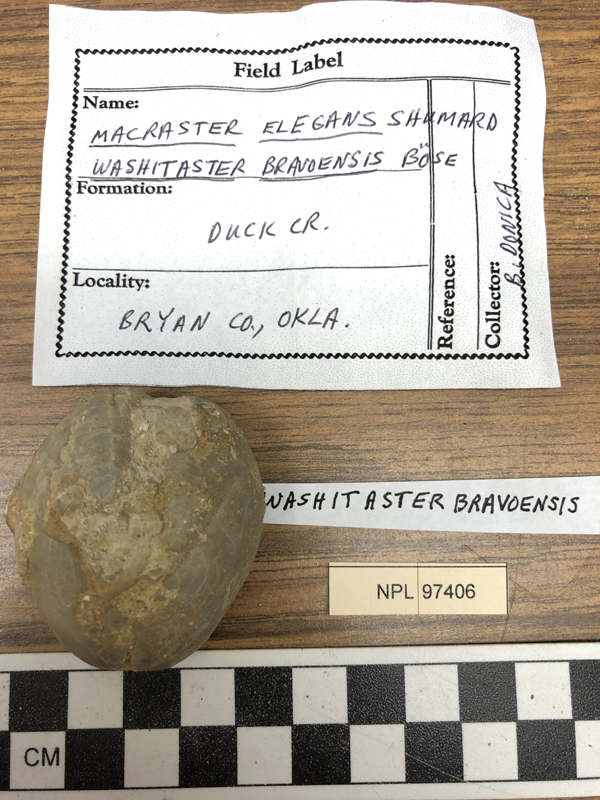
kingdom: Animalia
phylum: Echinodermata
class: Echinoidea
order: Spatangoida
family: Toxasteridae
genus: Washitaster
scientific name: Washitaster bravoensis
